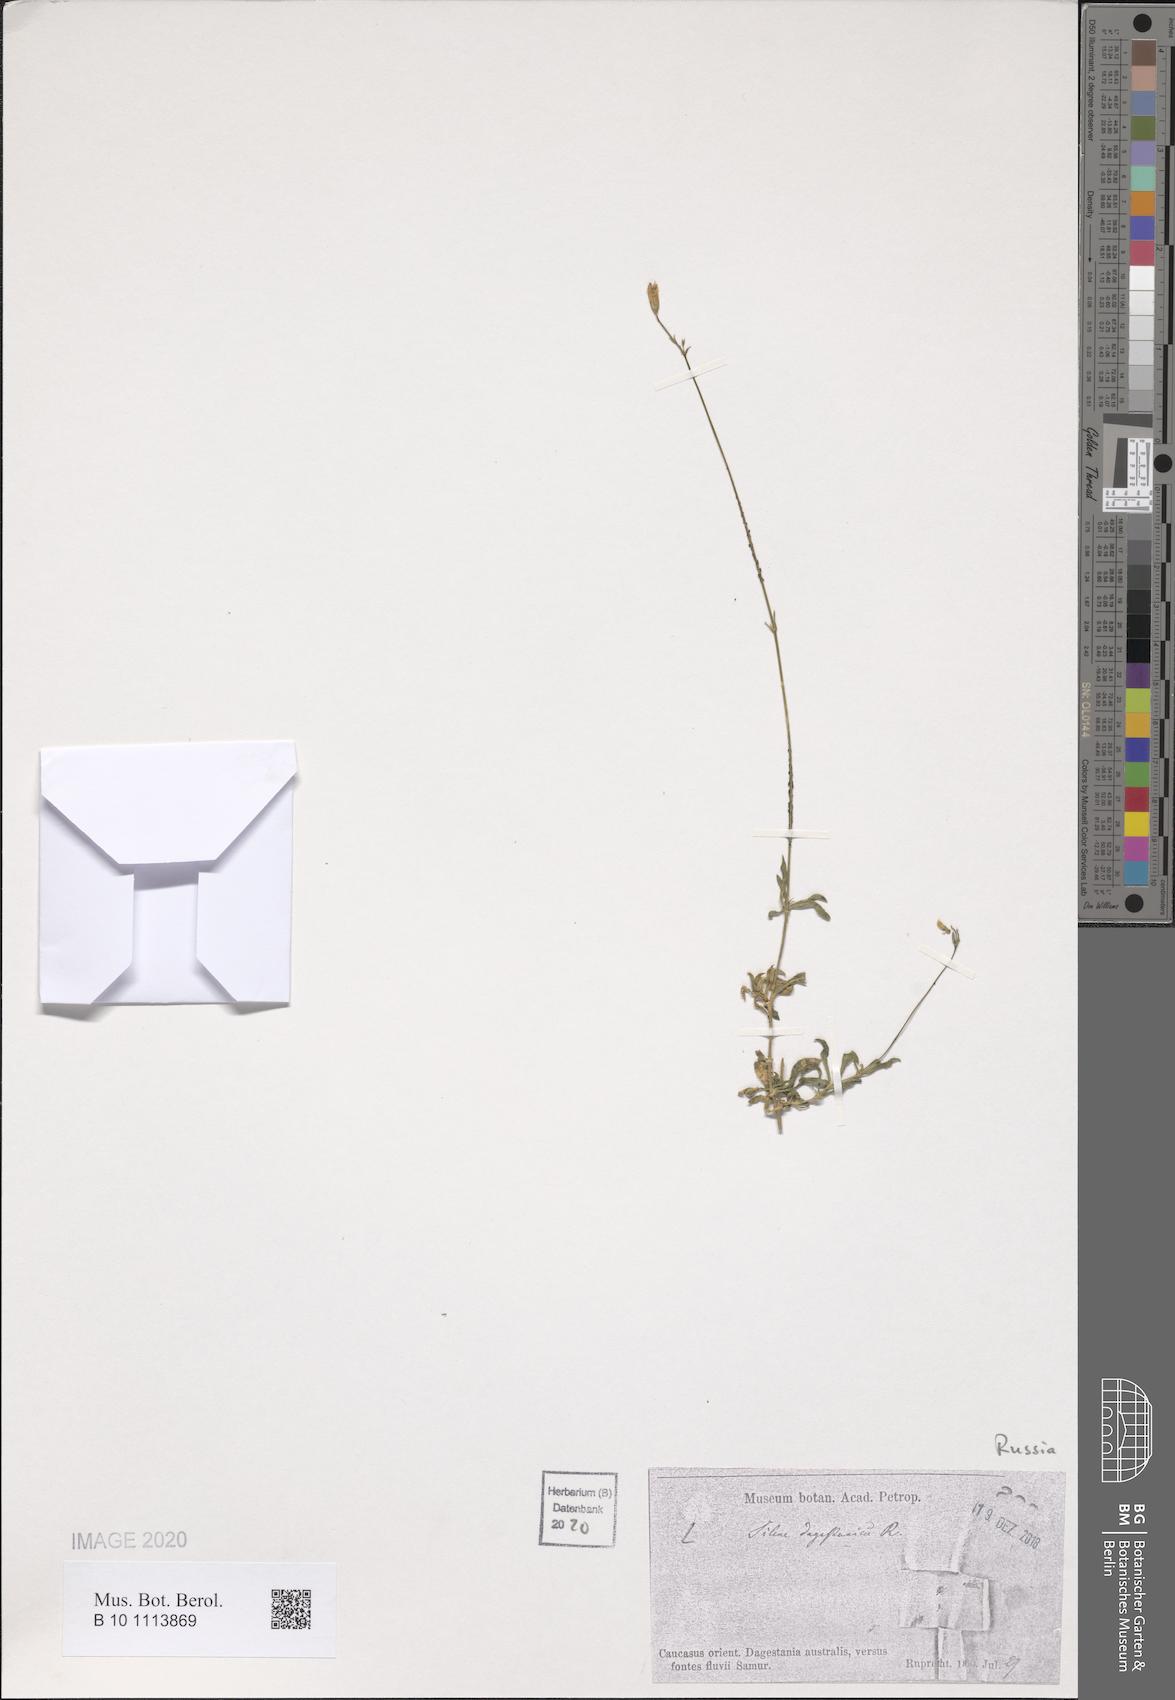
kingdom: Plantae
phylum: Tracheophyta
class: Magnoliopsida
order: Caryophyllales
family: Caryophyllaceae
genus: Silene
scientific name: Silene daghestanica
